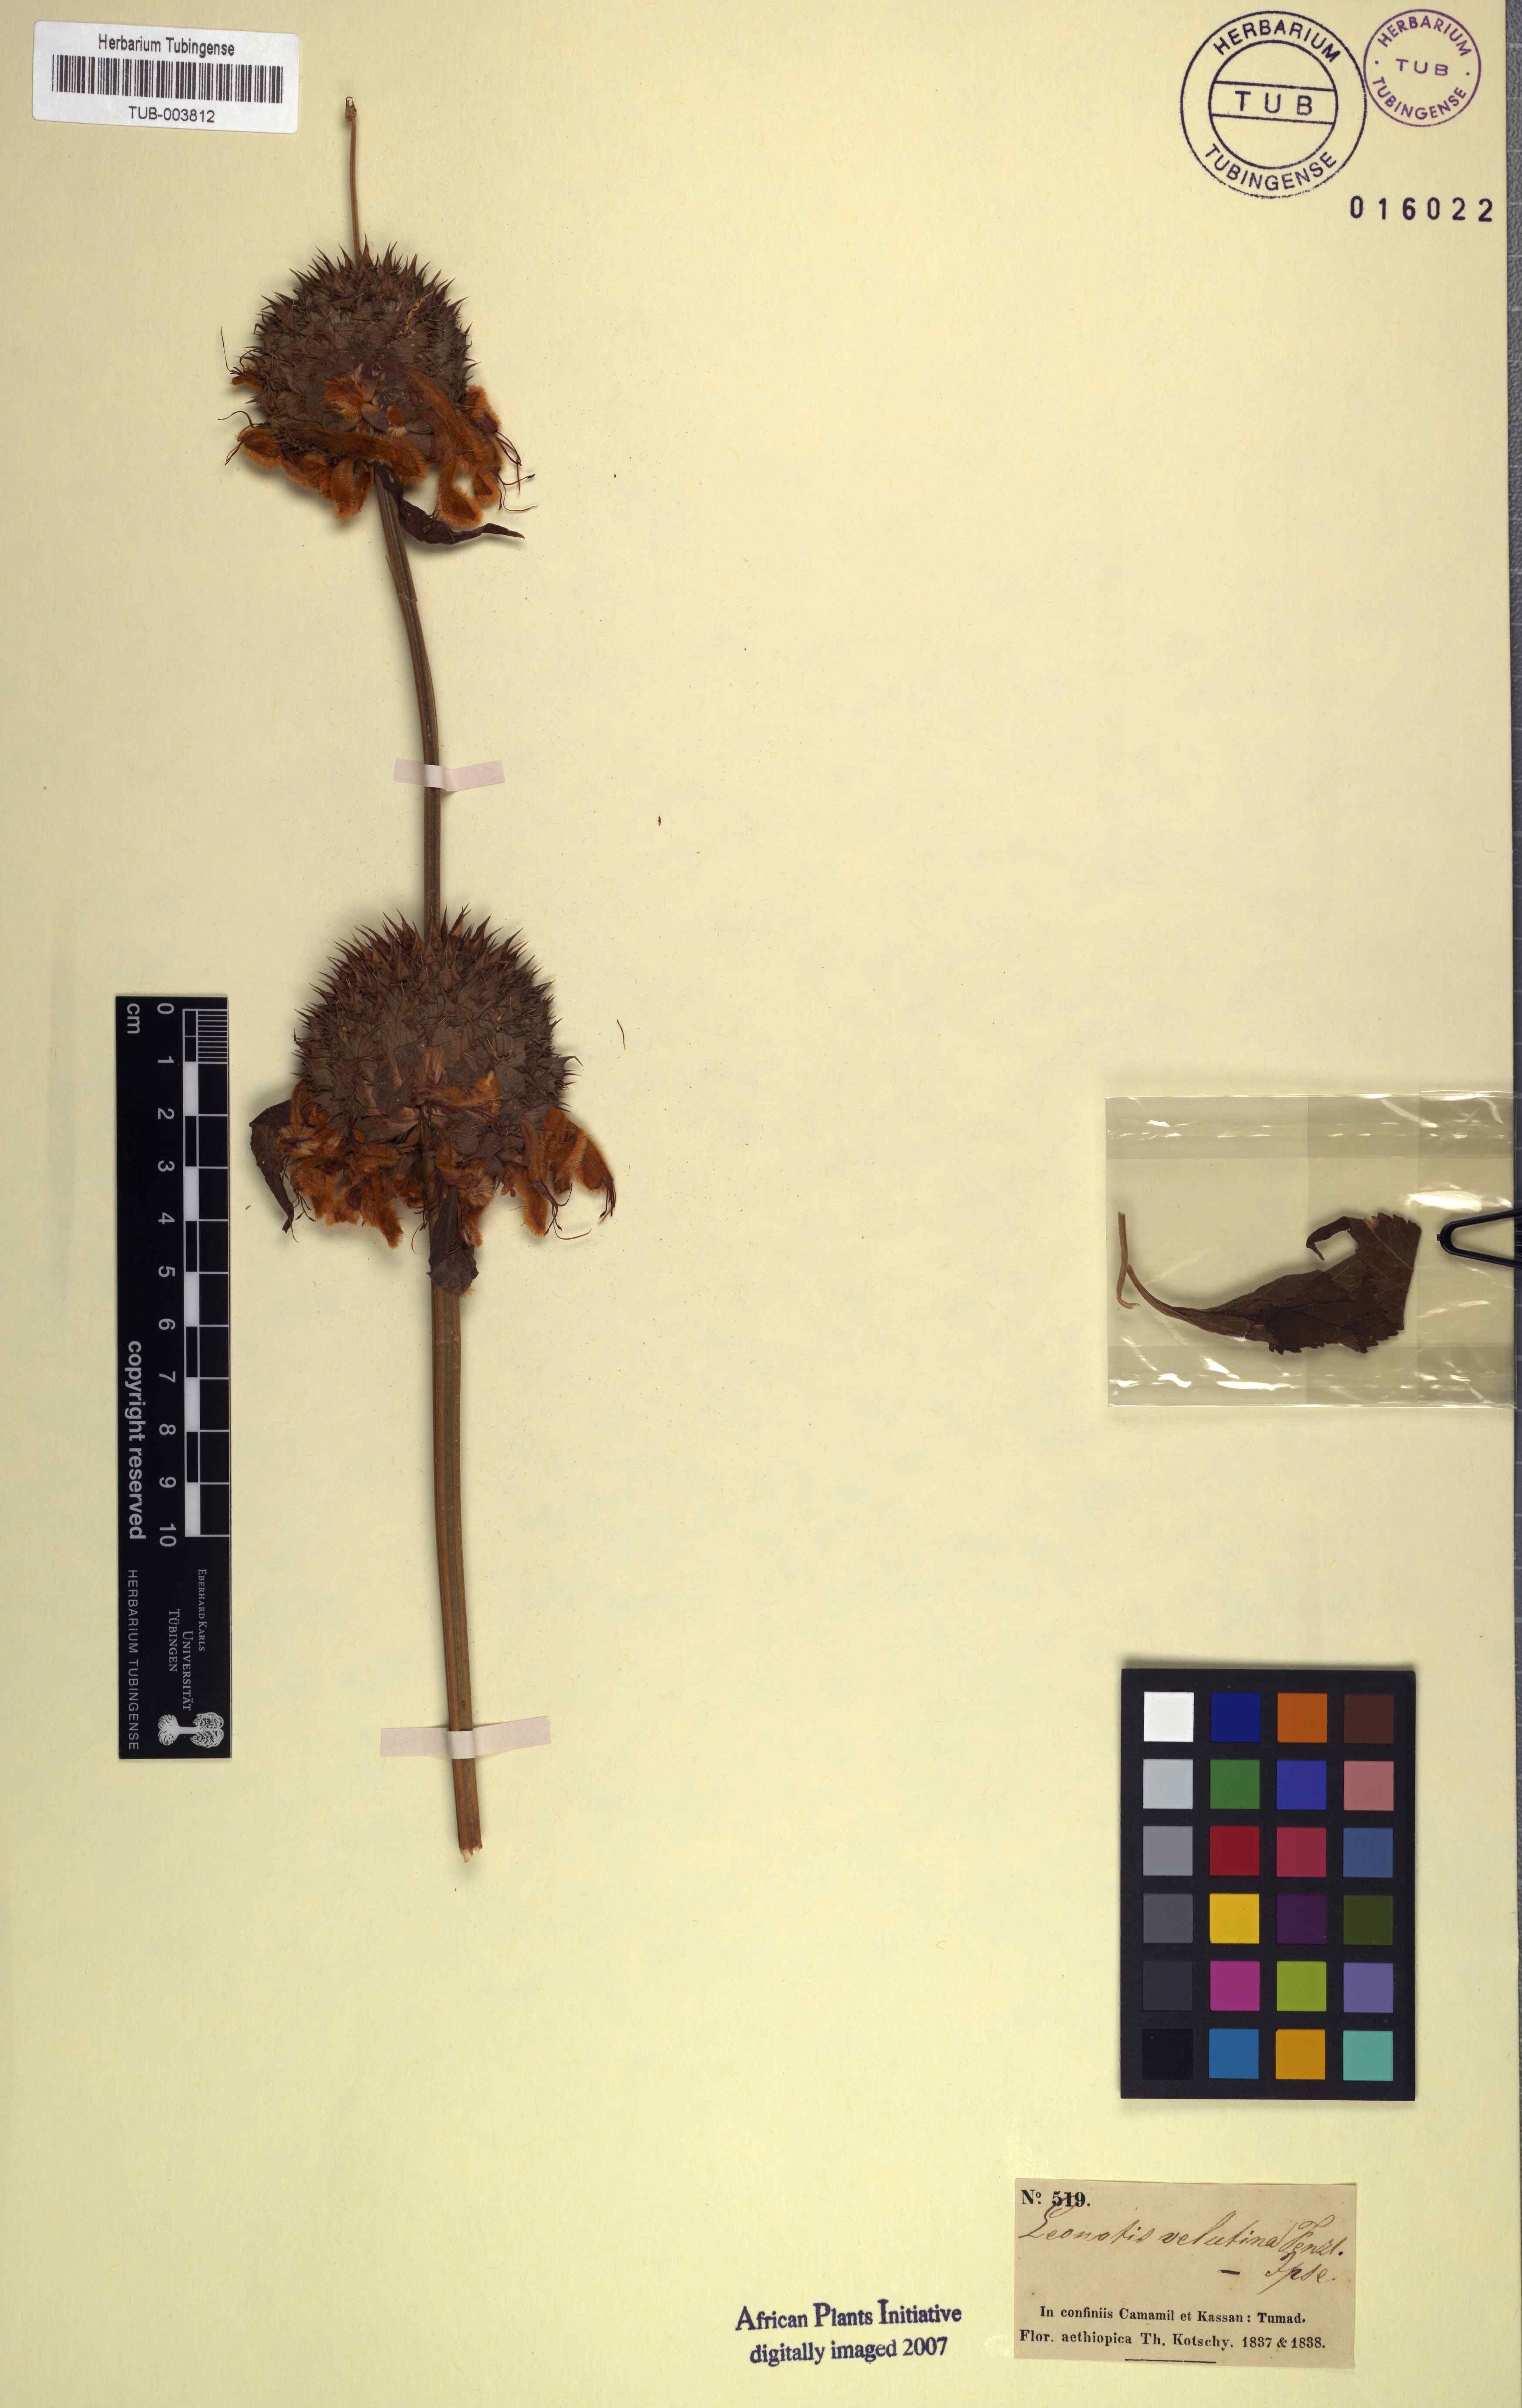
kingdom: Plantae
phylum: Tracheophyta
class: Magnoliopsida
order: Lamiales
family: Lamiaceae
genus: Leonotis
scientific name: Leonotis ocymifolia
